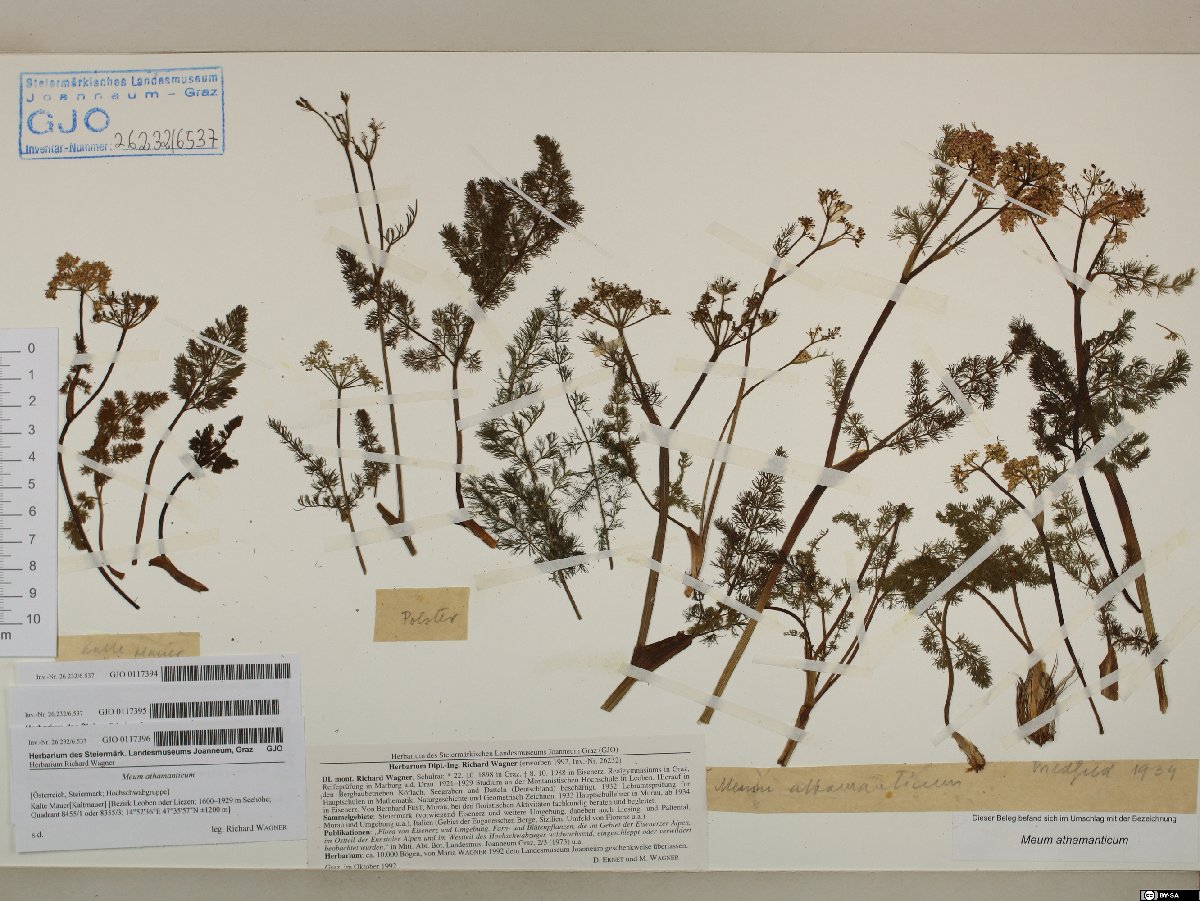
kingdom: Plantae
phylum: Tracheophyta
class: Magnoliopsida
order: Apiales
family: Apiaceae
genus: Meum
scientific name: Meum athamanticum
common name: Spignel
